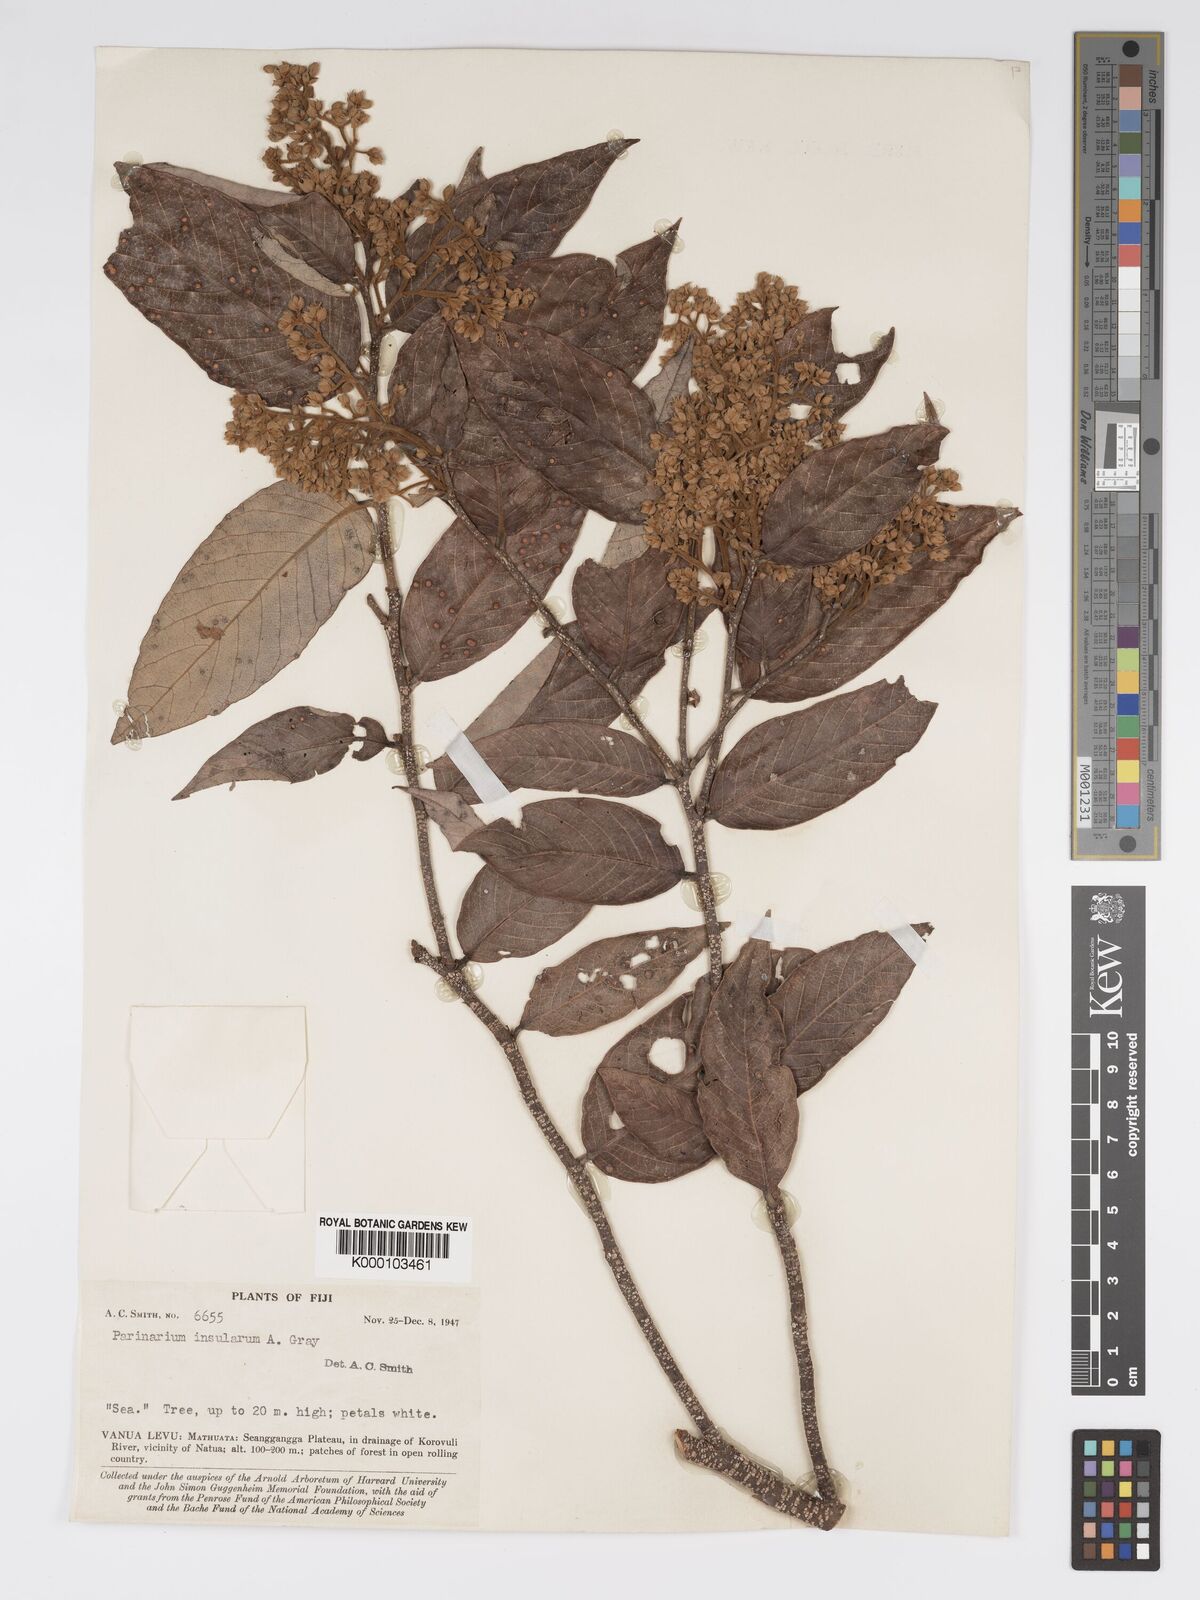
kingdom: Plantae
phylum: Tracheophyta
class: Magnoliopsida
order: Malpighiales
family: Chrysobalanaceae
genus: Parinari
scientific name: Parinari insularum
